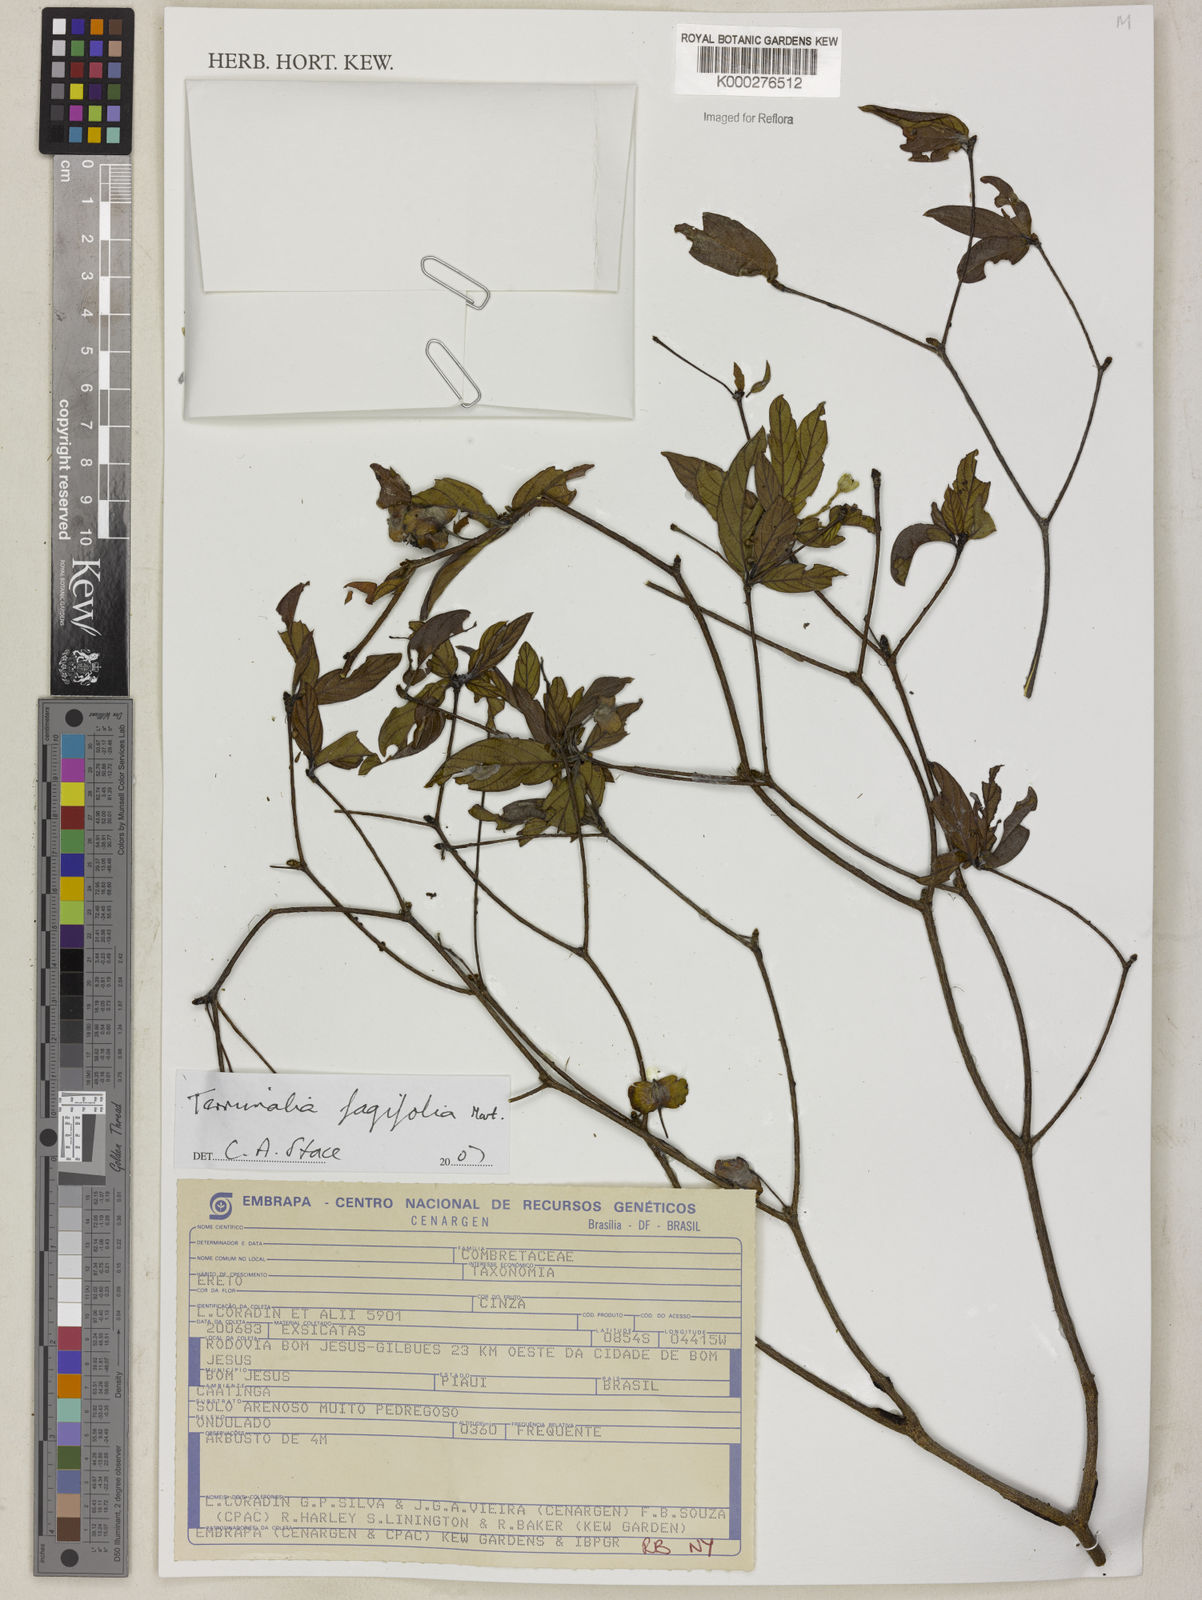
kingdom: Plantae
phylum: Tracheophyta
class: Magnoliopsida
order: Myrtales
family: Combretaceae
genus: Terminalia
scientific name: Terminalia fagifolia
